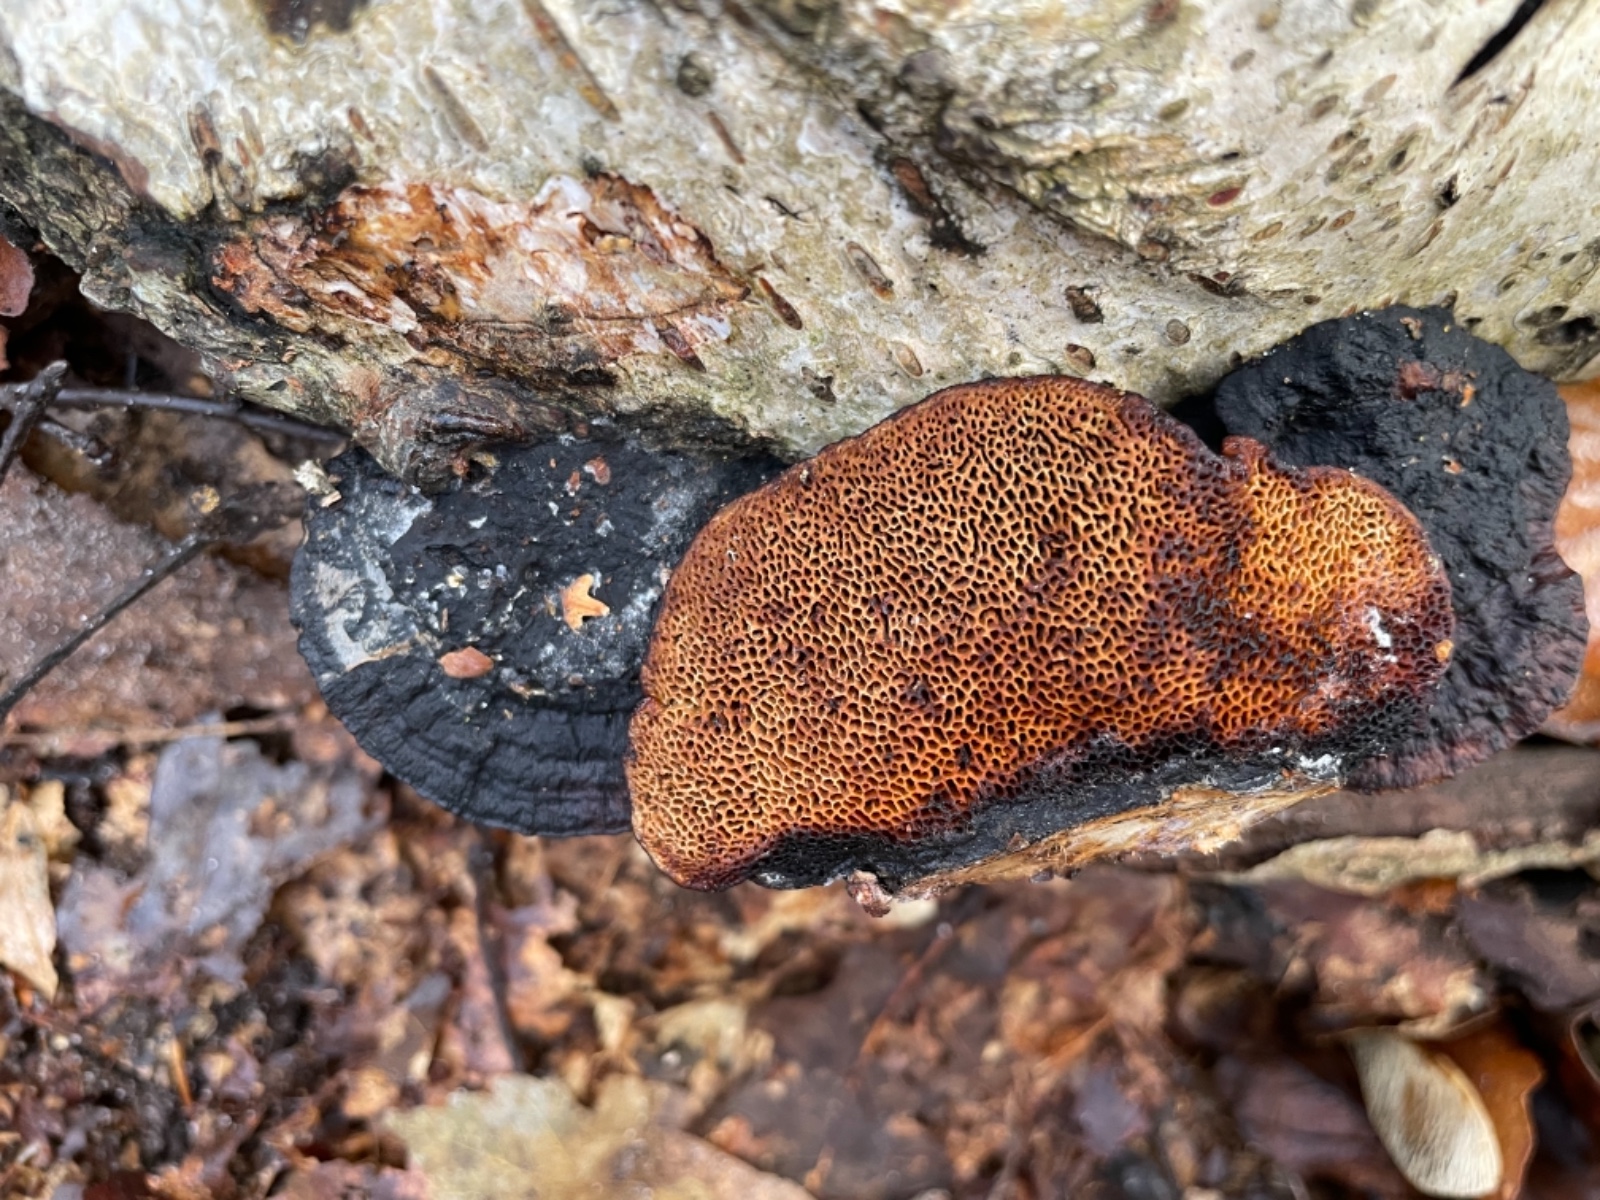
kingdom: Fungi
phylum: Basidiomycota
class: Agaricomycetes
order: Polyporales
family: Polyporaceae
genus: Daedaleopsis
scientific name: Daedaleopsis confragosa
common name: rødmende læderporesvamp
